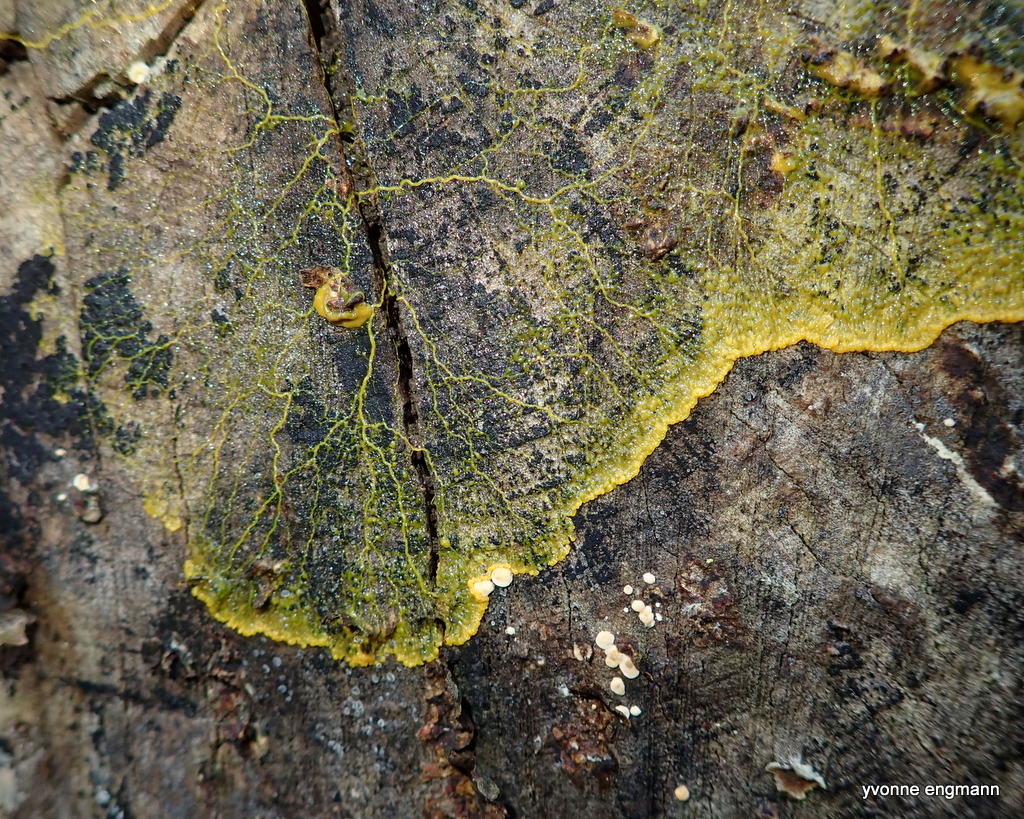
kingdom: Protozoa
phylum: Mycetozoa
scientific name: Mycetozoa
